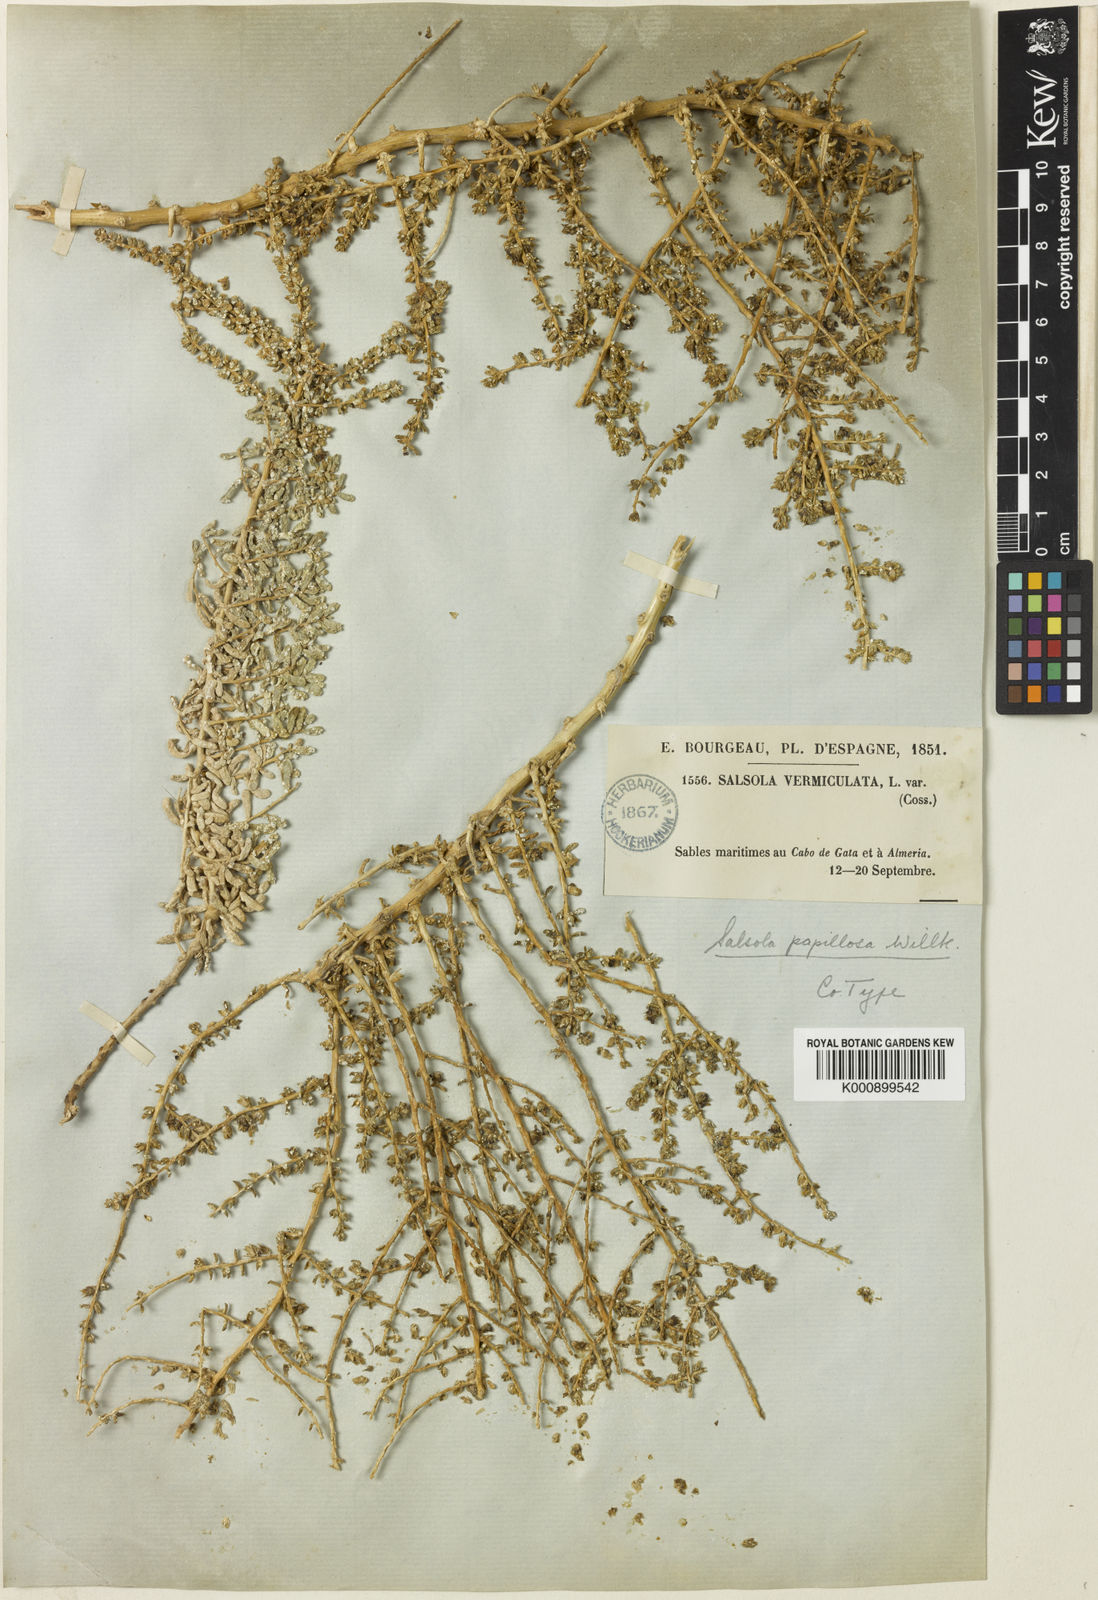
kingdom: Plantae
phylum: Tracheophyta
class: Magnoliopsida
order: Caryophyllales
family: Amaranthaceae
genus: Salsola
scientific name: Salsola papillosa
